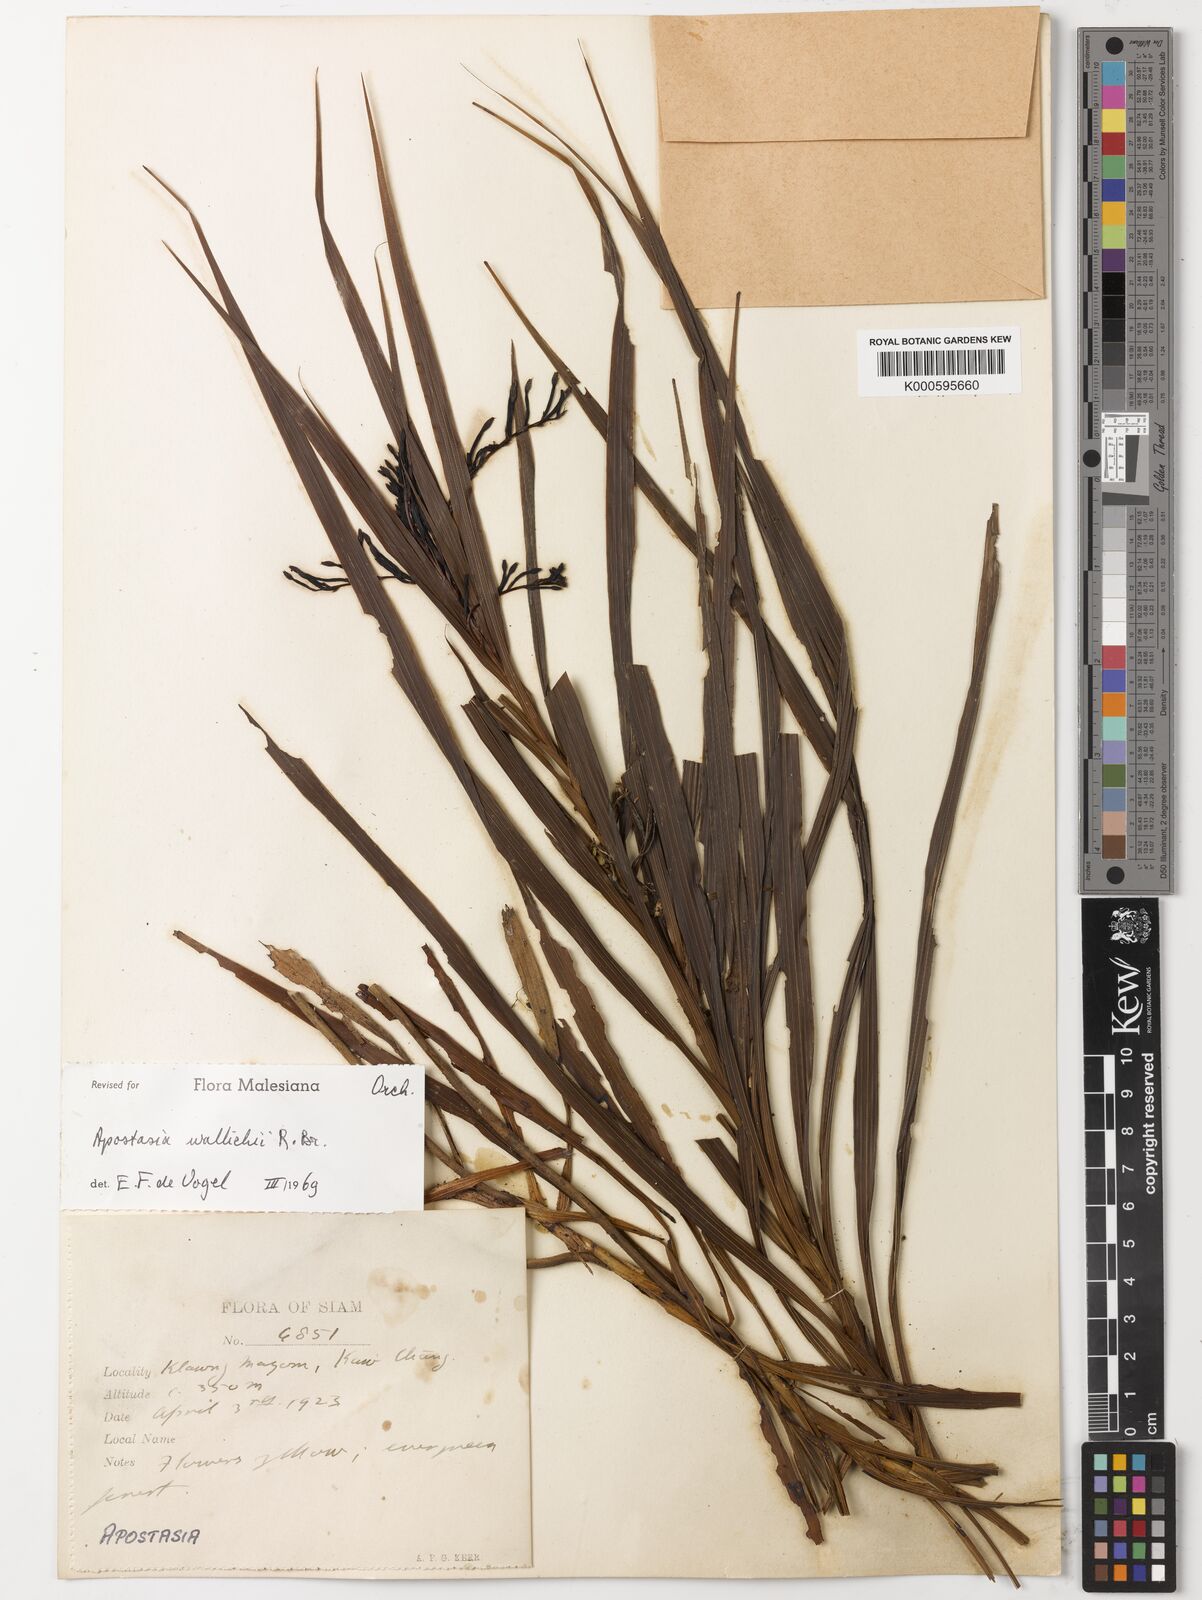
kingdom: Plantae
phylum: Tracheophyta
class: Liliopsida
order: Asparagales
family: Orchidaceae
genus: Apostasia
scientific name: Apostasia wallichii
